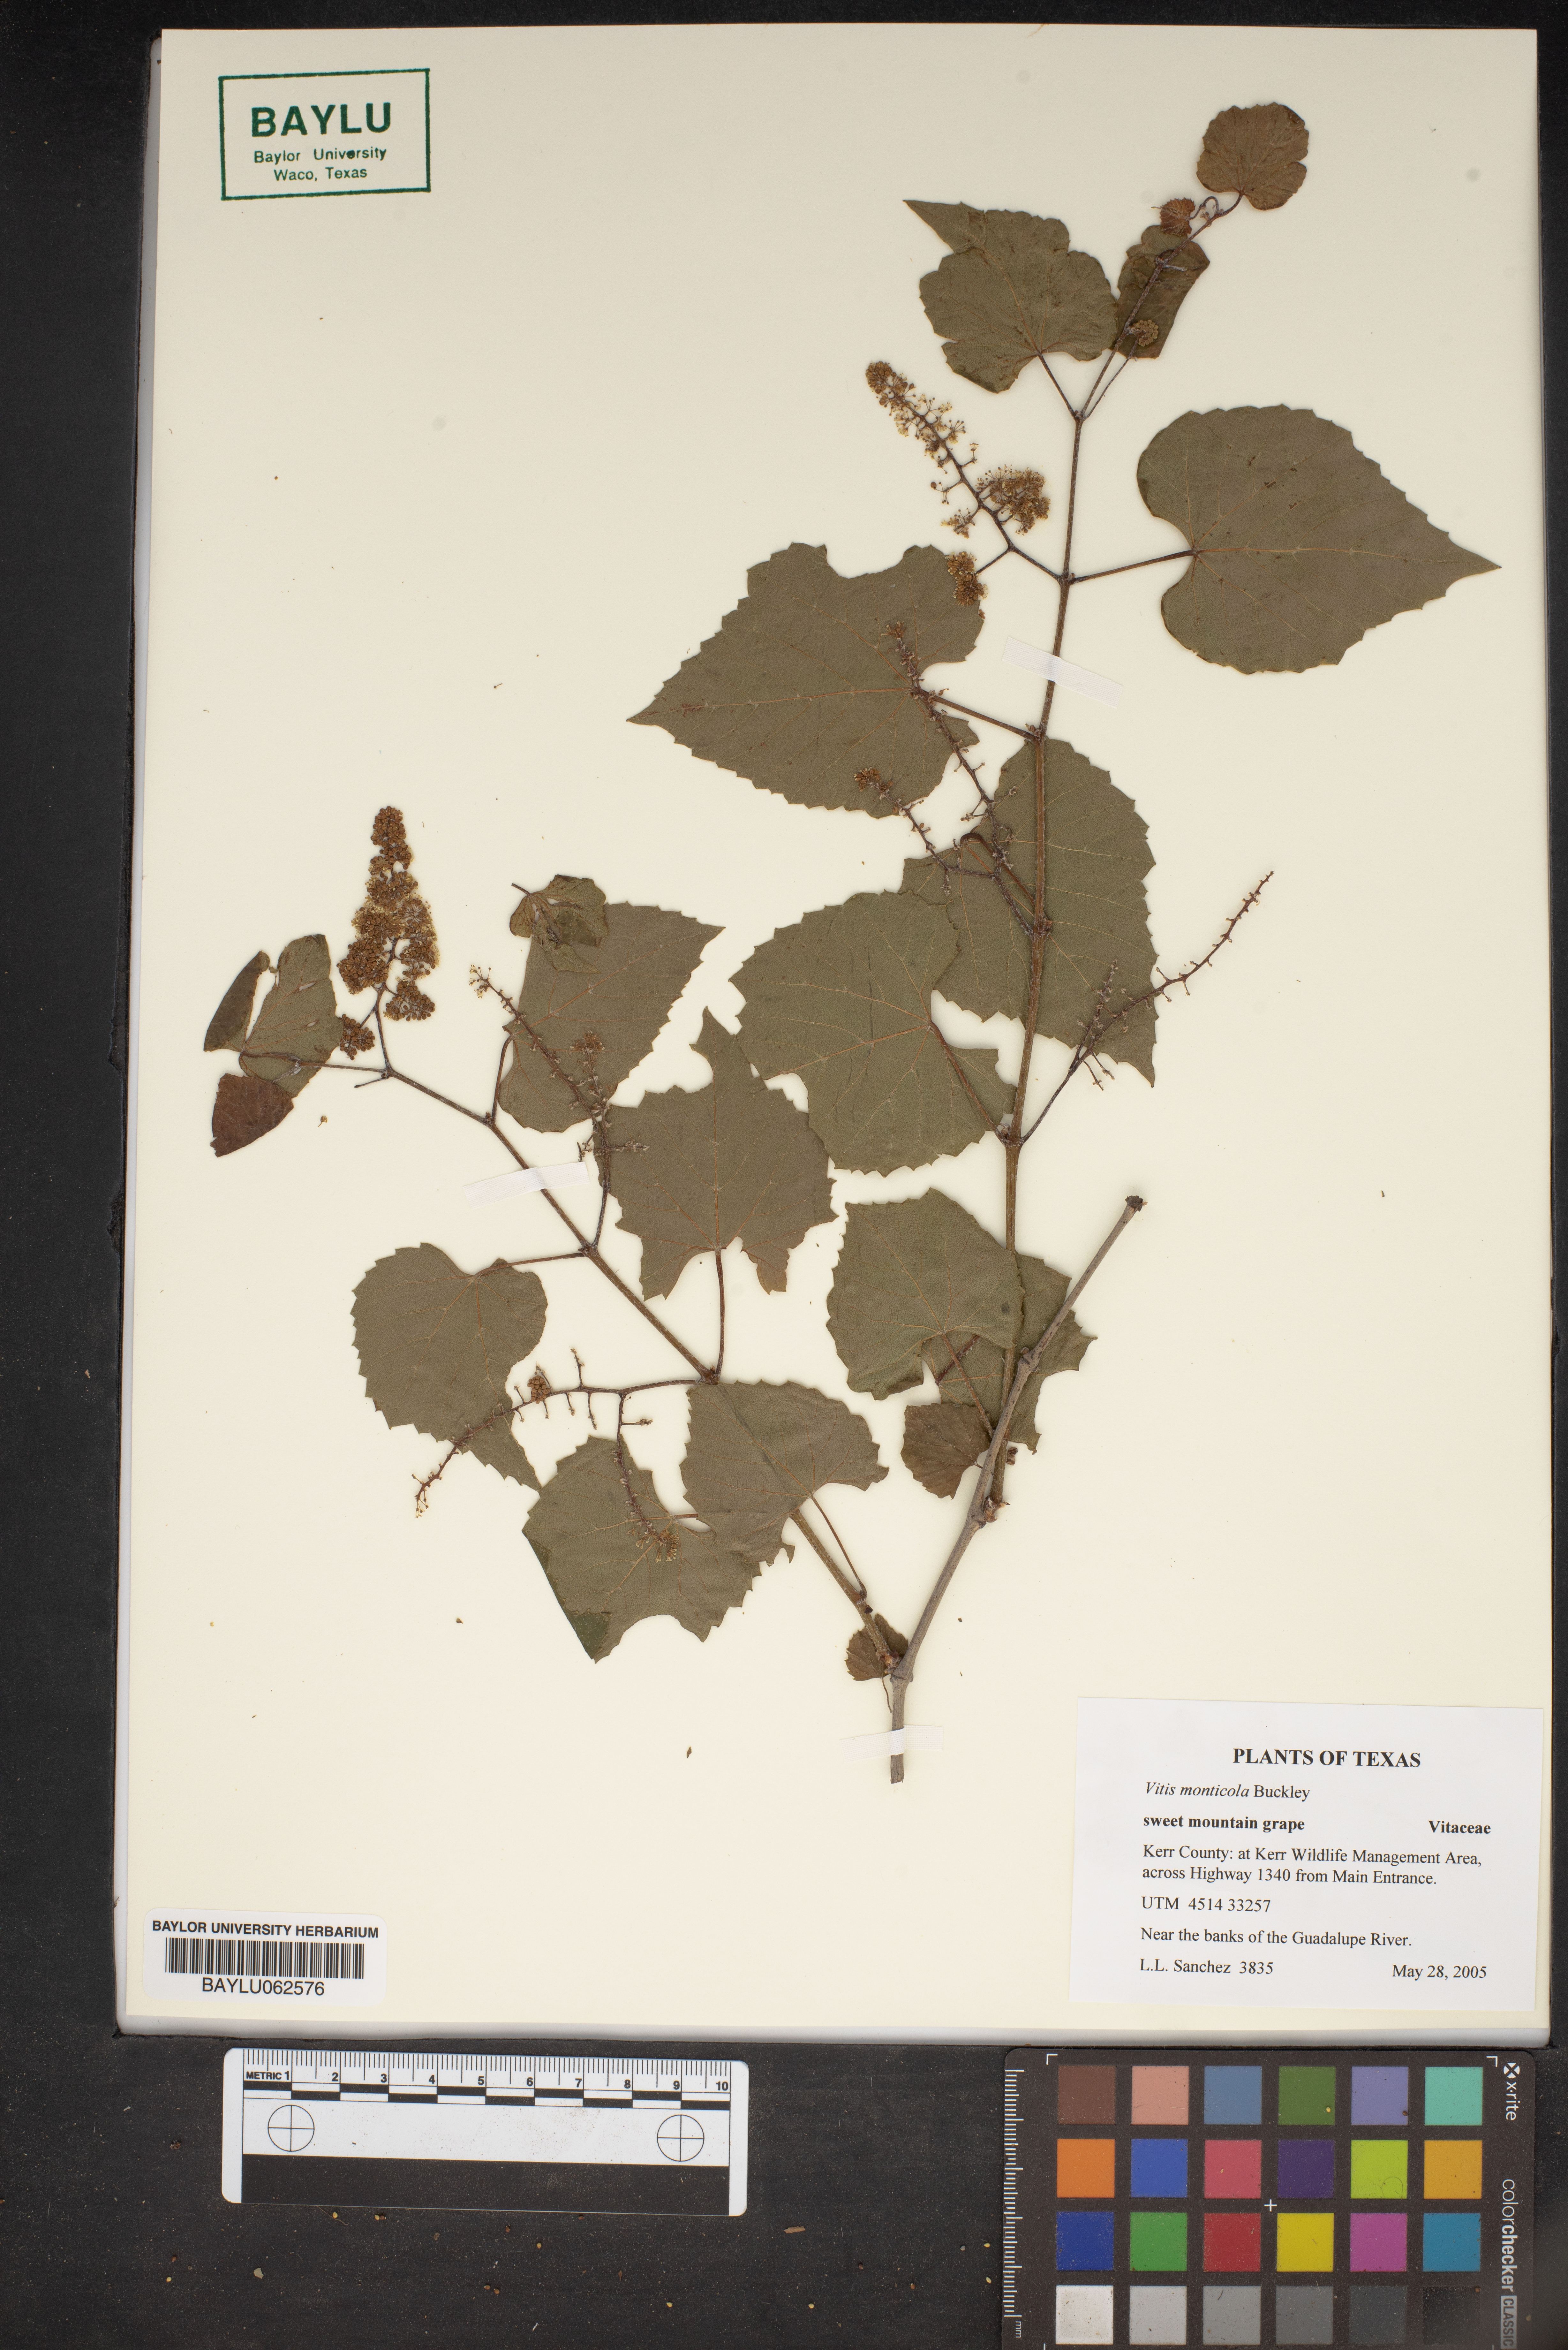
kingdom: Plantae
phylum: Tracheophyta
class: Magnoliopsida
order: Vitales
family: Vitaceae
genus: Vitis
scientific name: Vitis monticola
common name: Mountain grape
